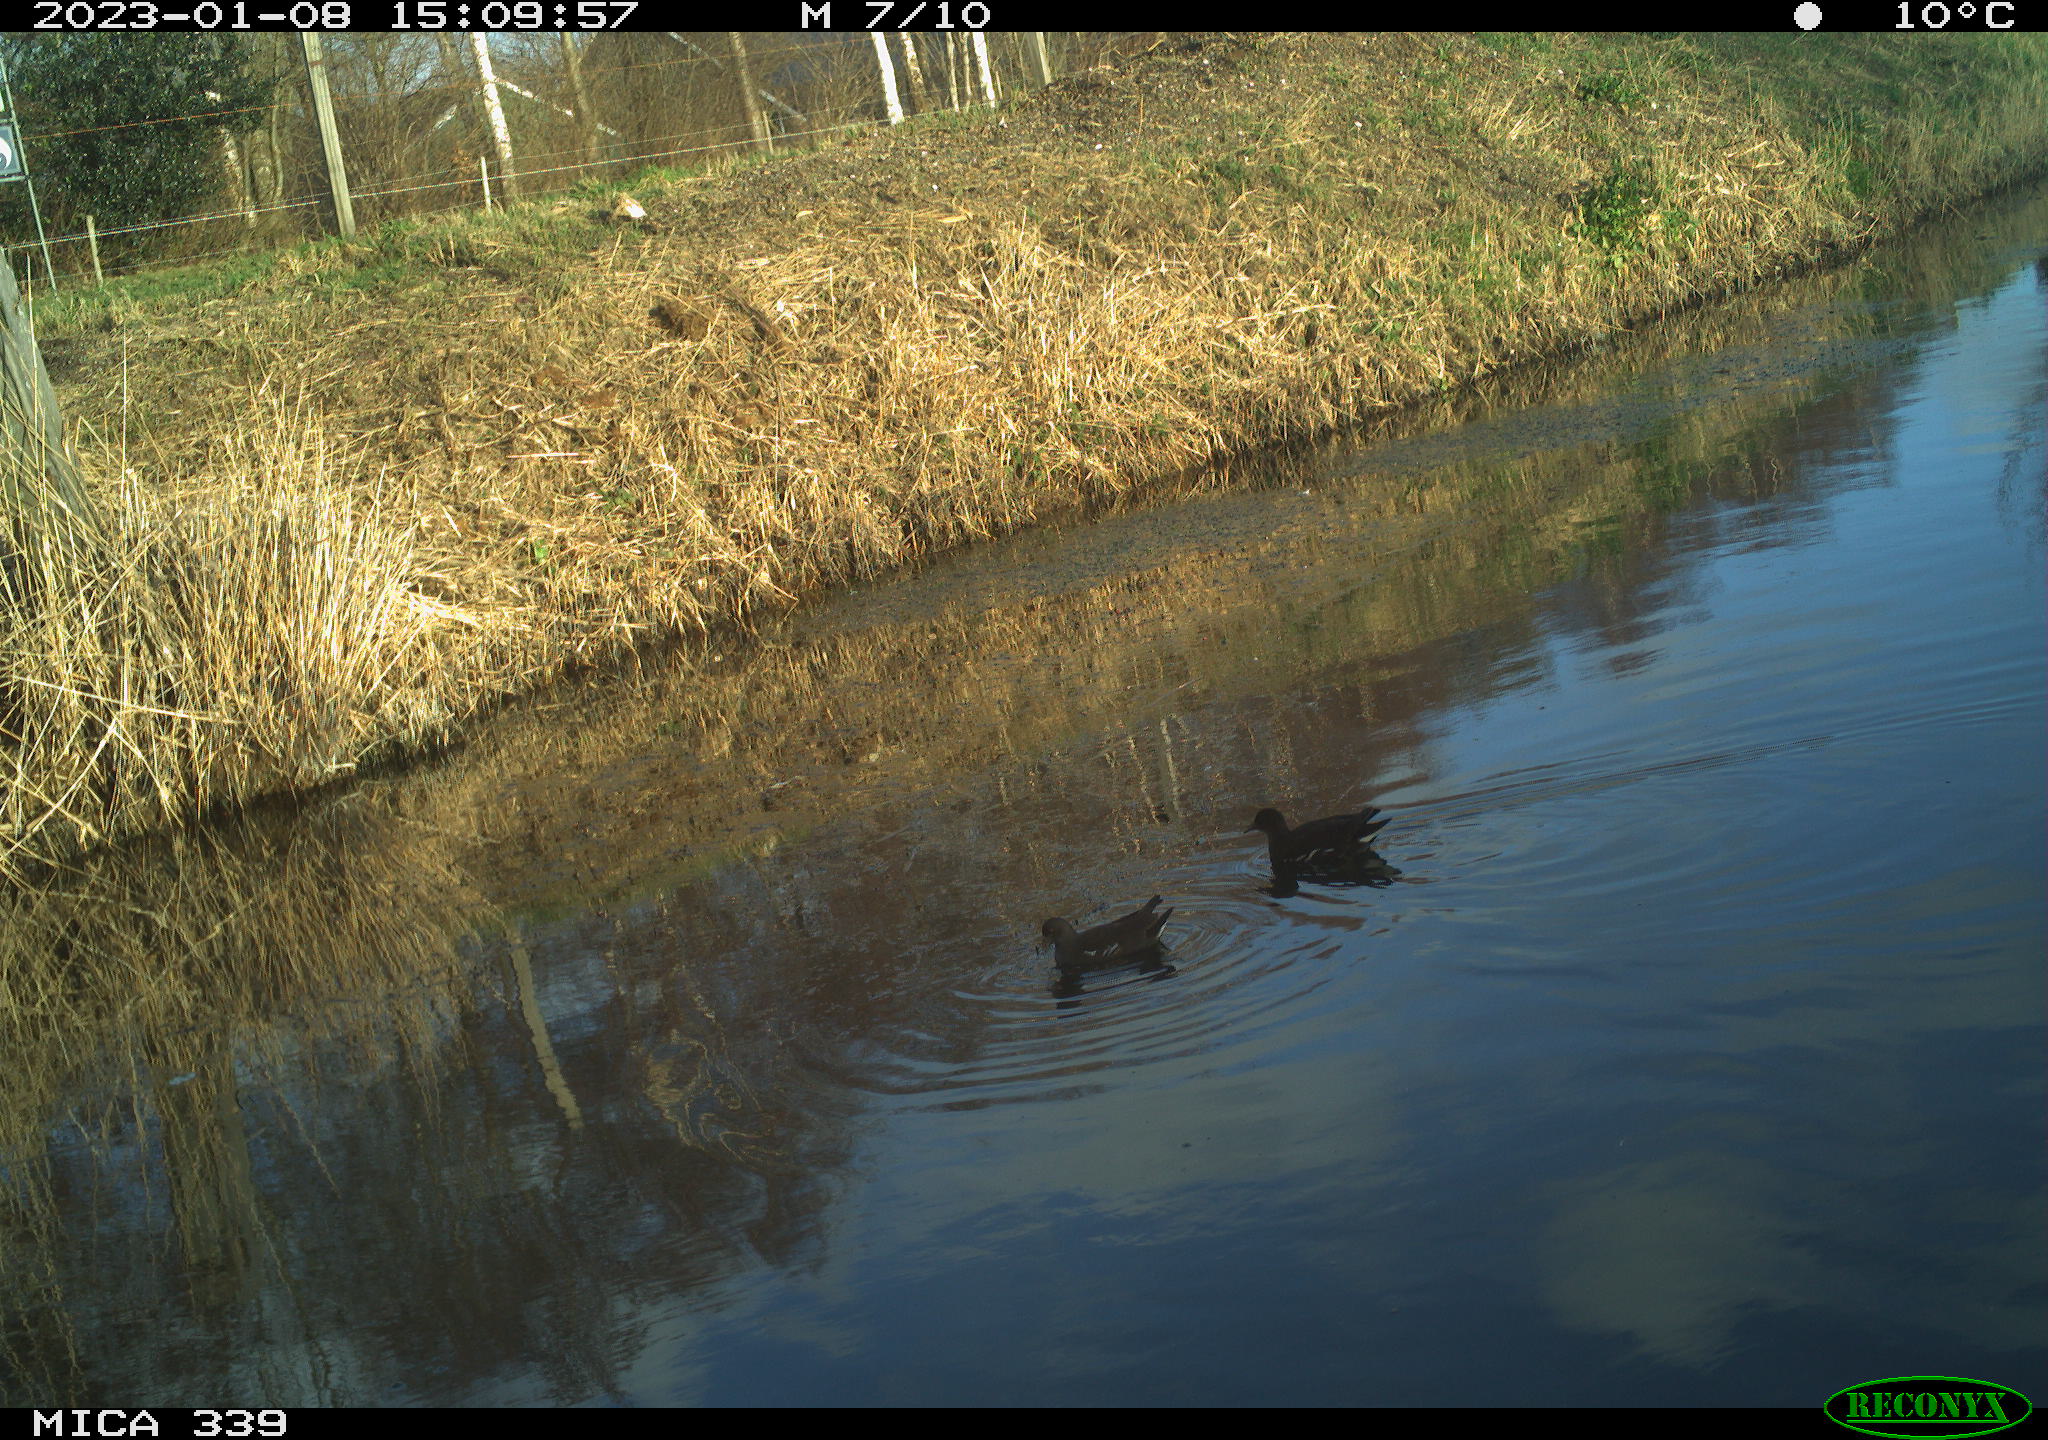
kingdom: Animalia
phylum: Chordata
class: Aves
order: Gruiformes
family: Rallidae
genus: Gallinula
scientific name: Gallinula chloropus
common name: Common moorhen
